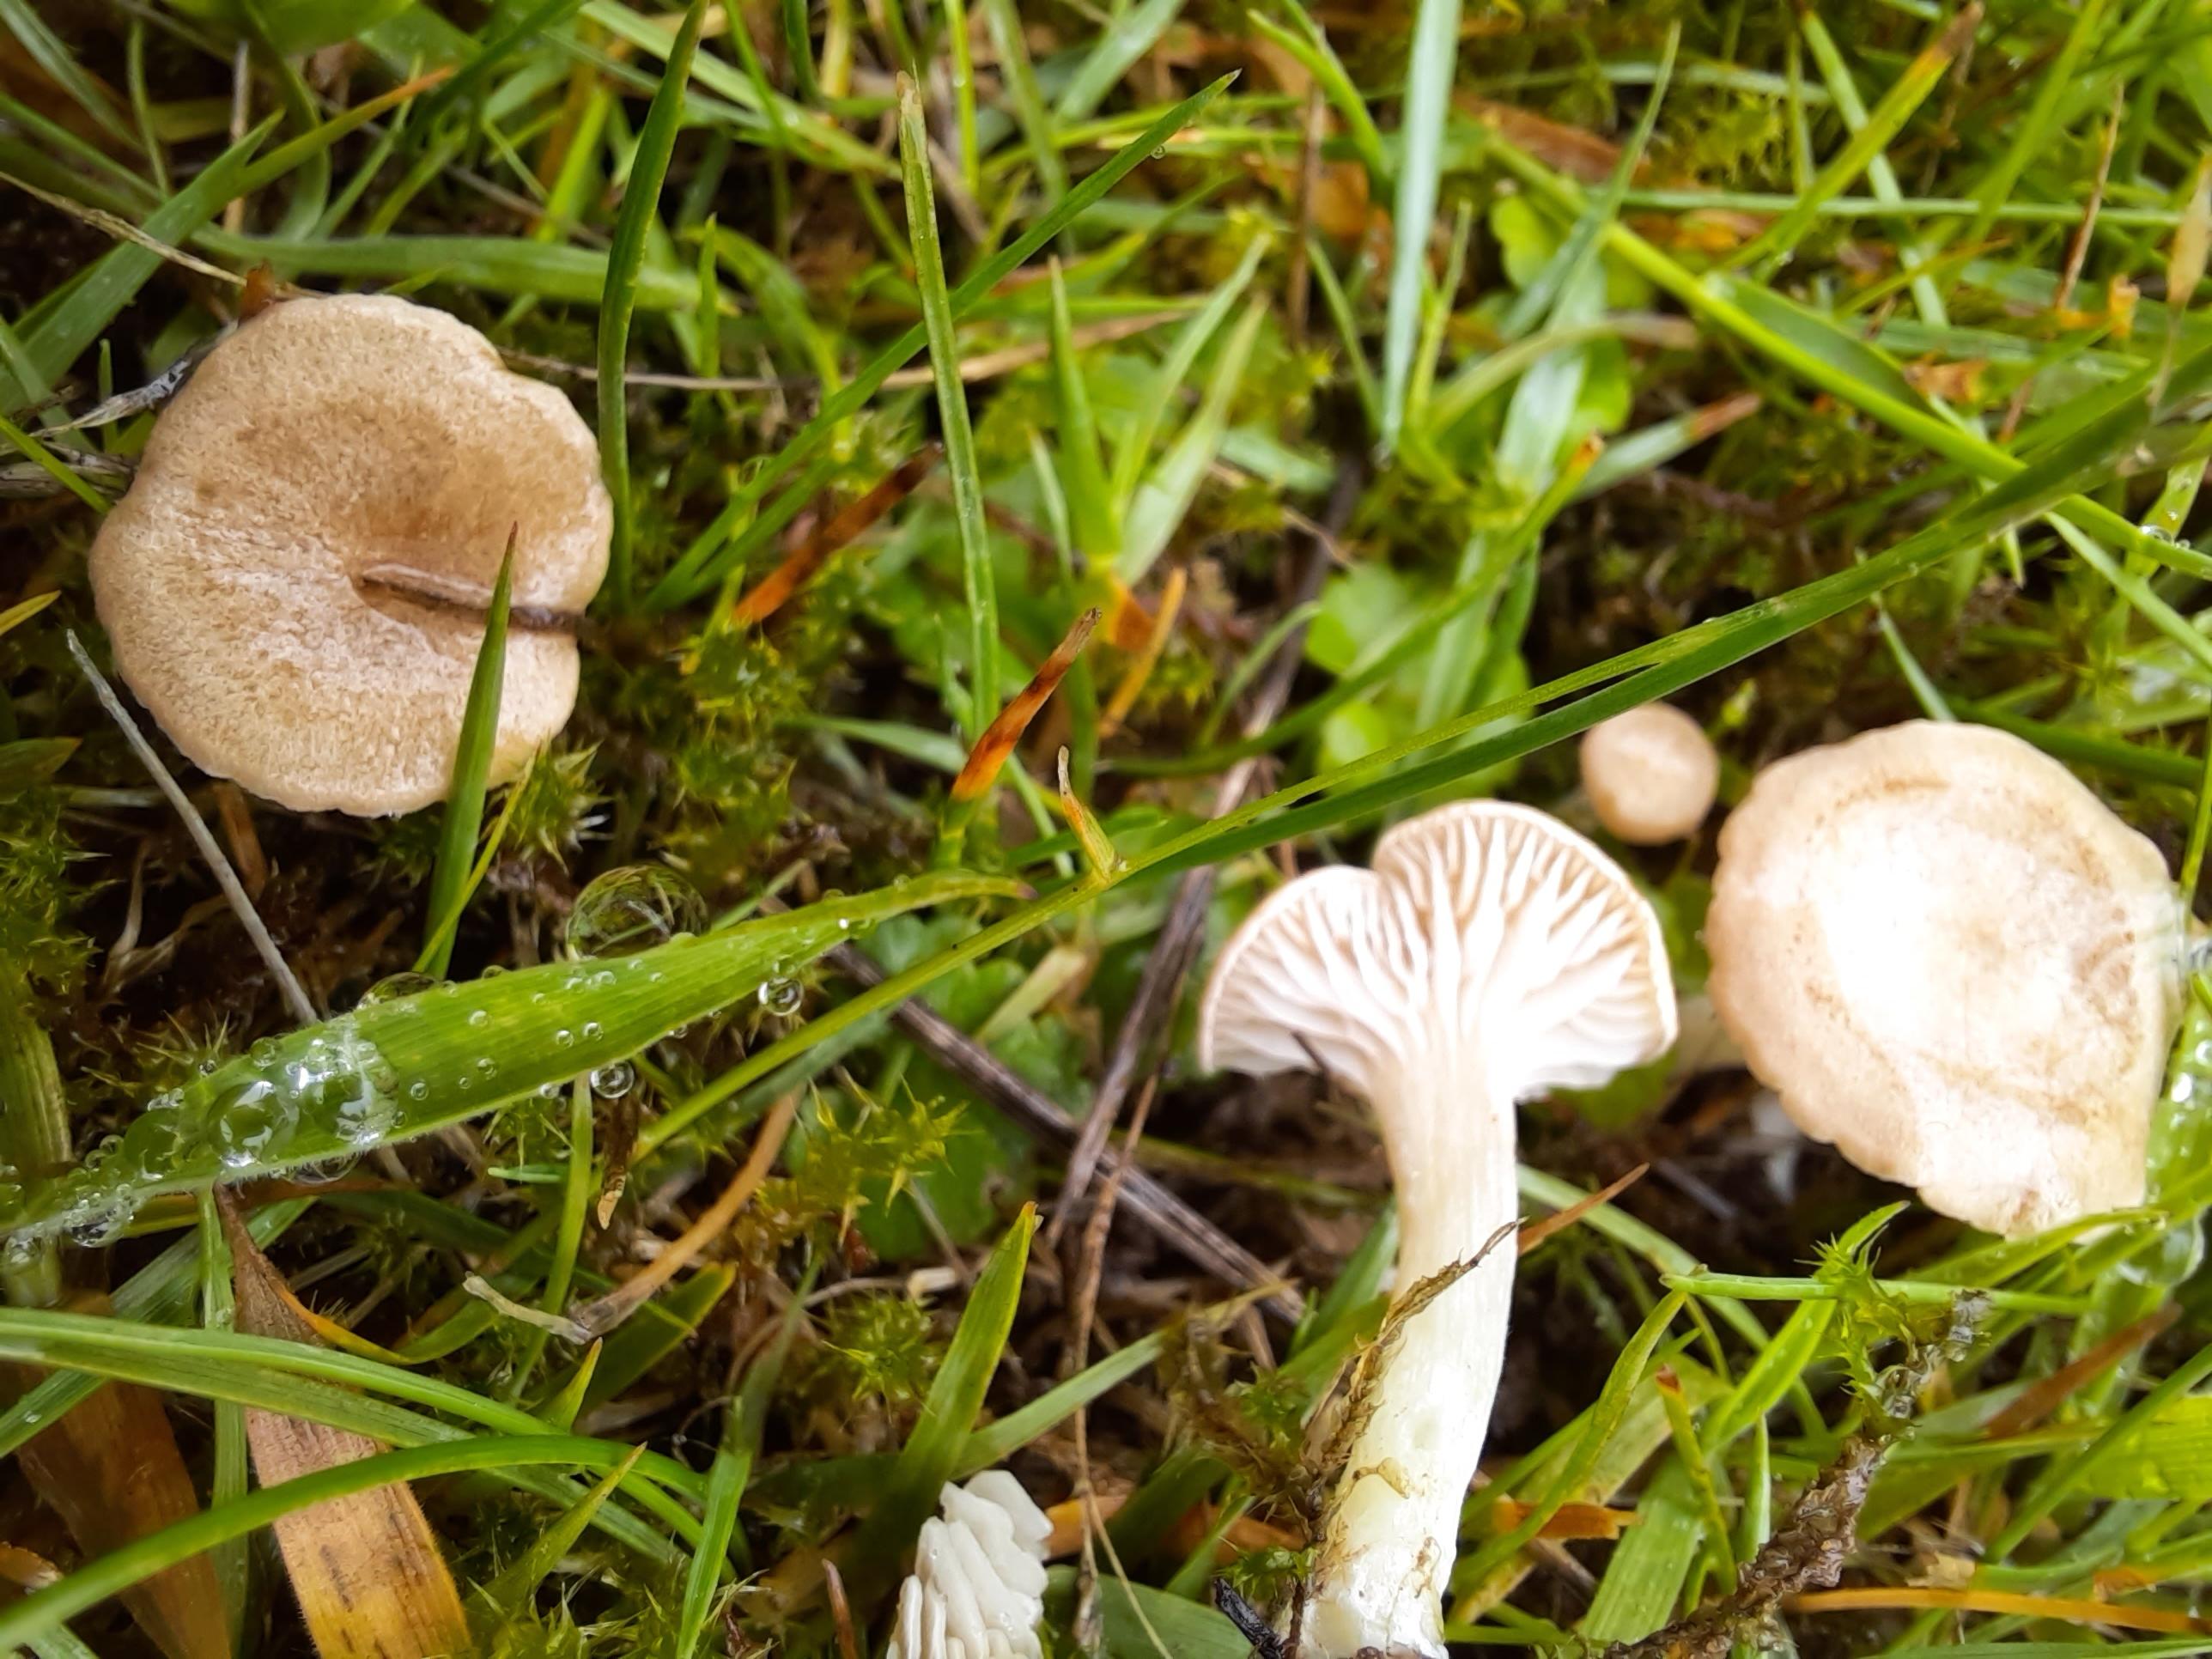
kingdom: Fungi
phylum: Basidiomycota
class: Agaricomycetes
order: Agaricales
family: Entolomataceae
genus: Entoloma
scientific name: Entoloma neglectum
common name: bleg rødblad
